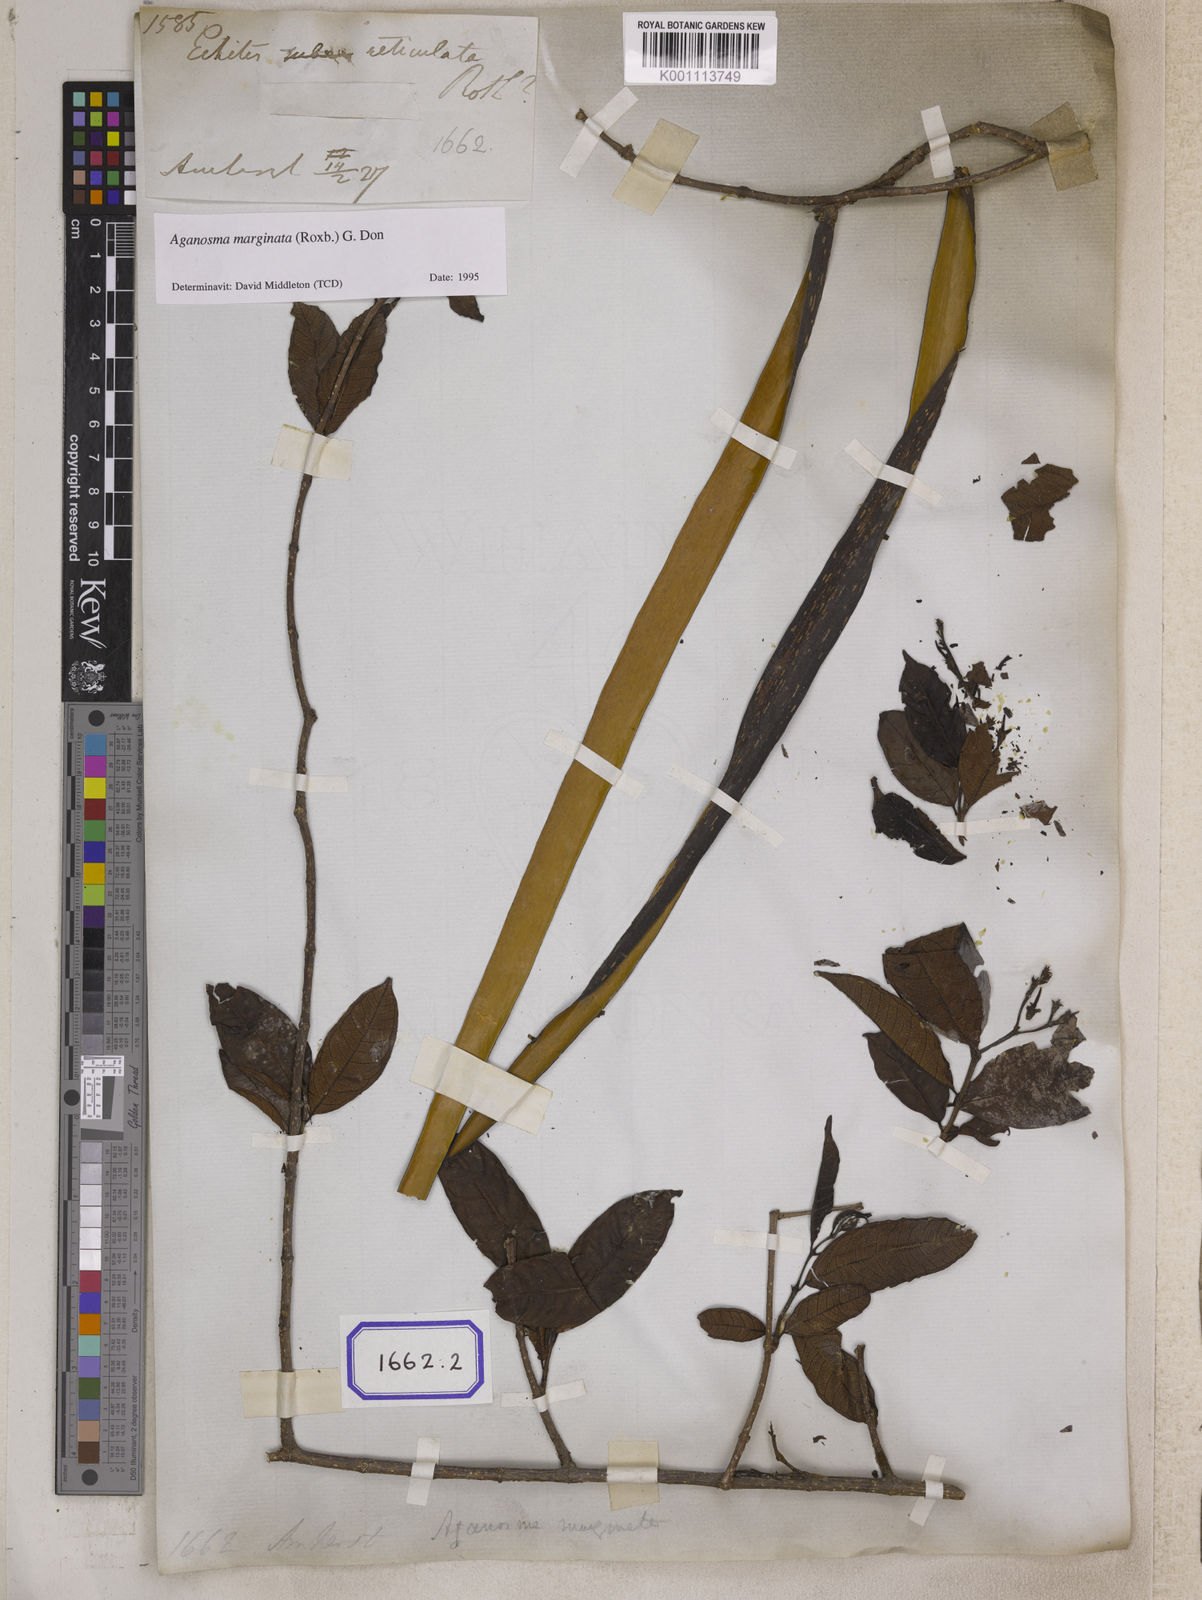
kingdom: Plantae
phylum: Tracheophyta
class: Magnoliopsida
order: Gentianales
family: Apocynaceae
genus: Echites
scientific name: Echites
